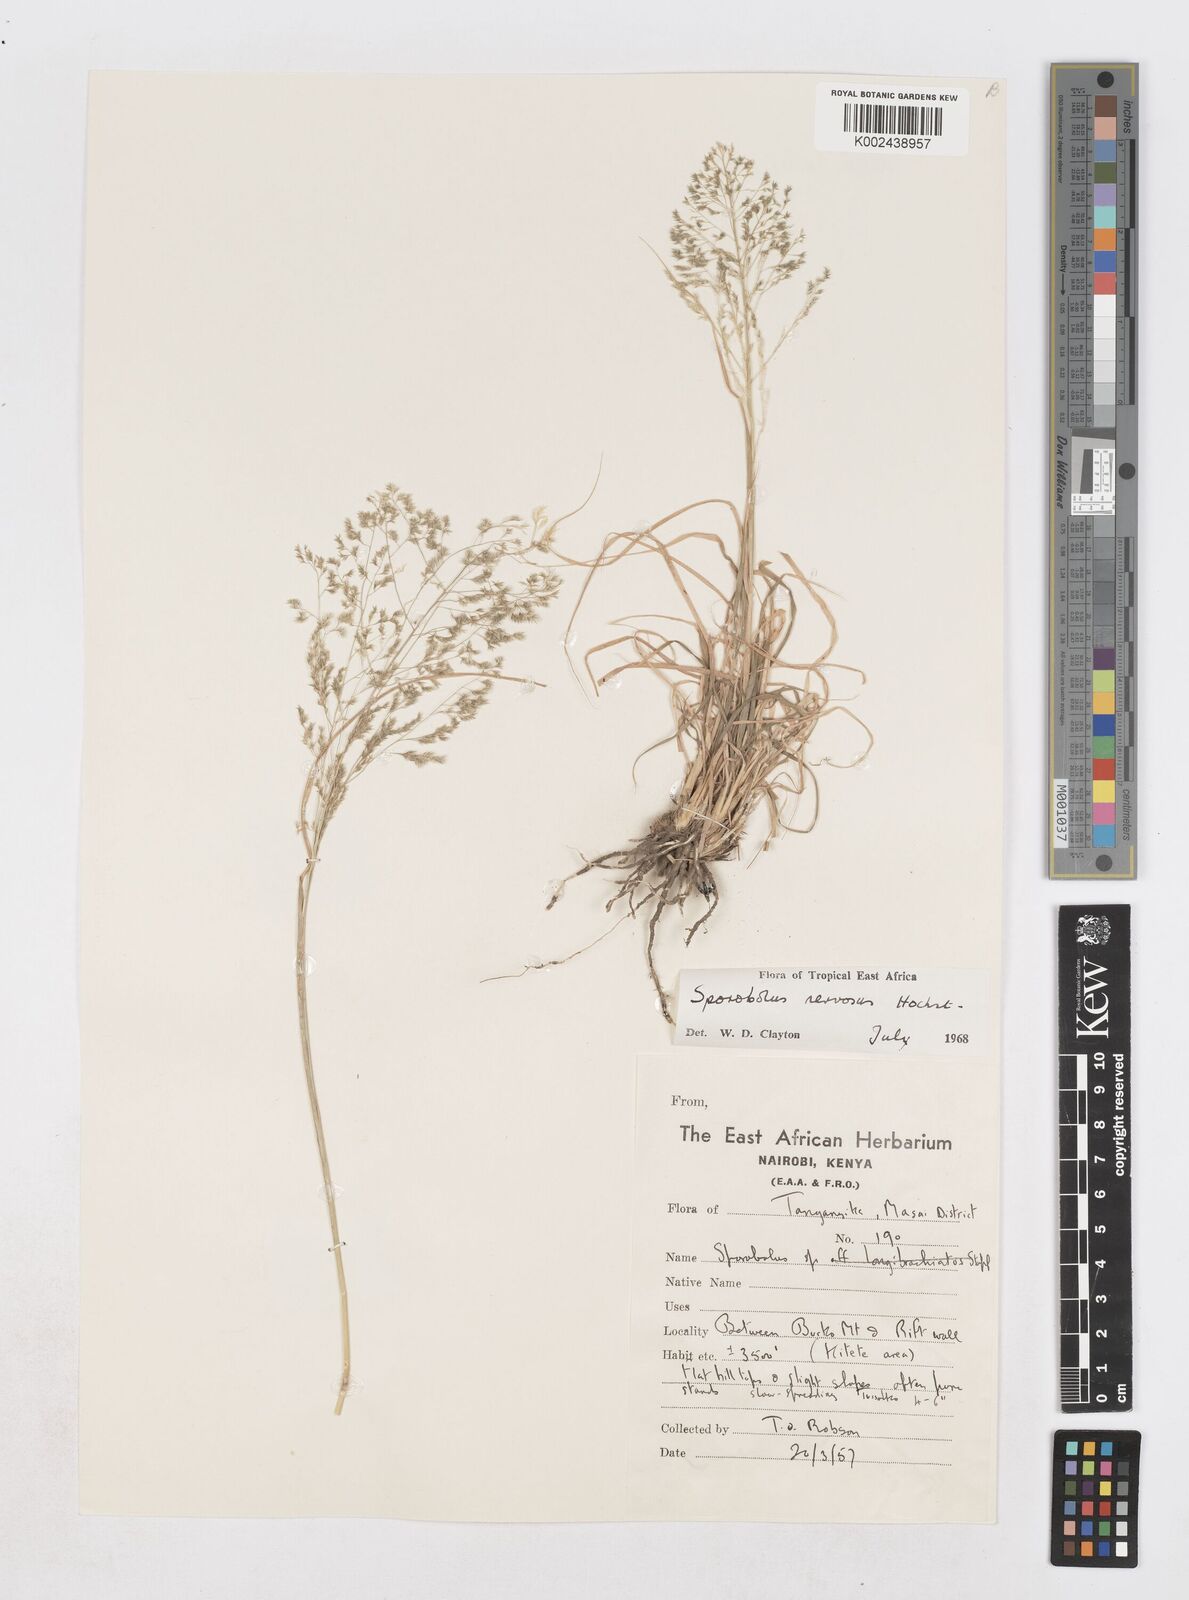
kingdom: Plantae
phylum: Tracheophyta
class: Liliopsida
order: Poales
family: Poaceae
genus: Sporobolus
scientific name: Sporobolus nervosus
